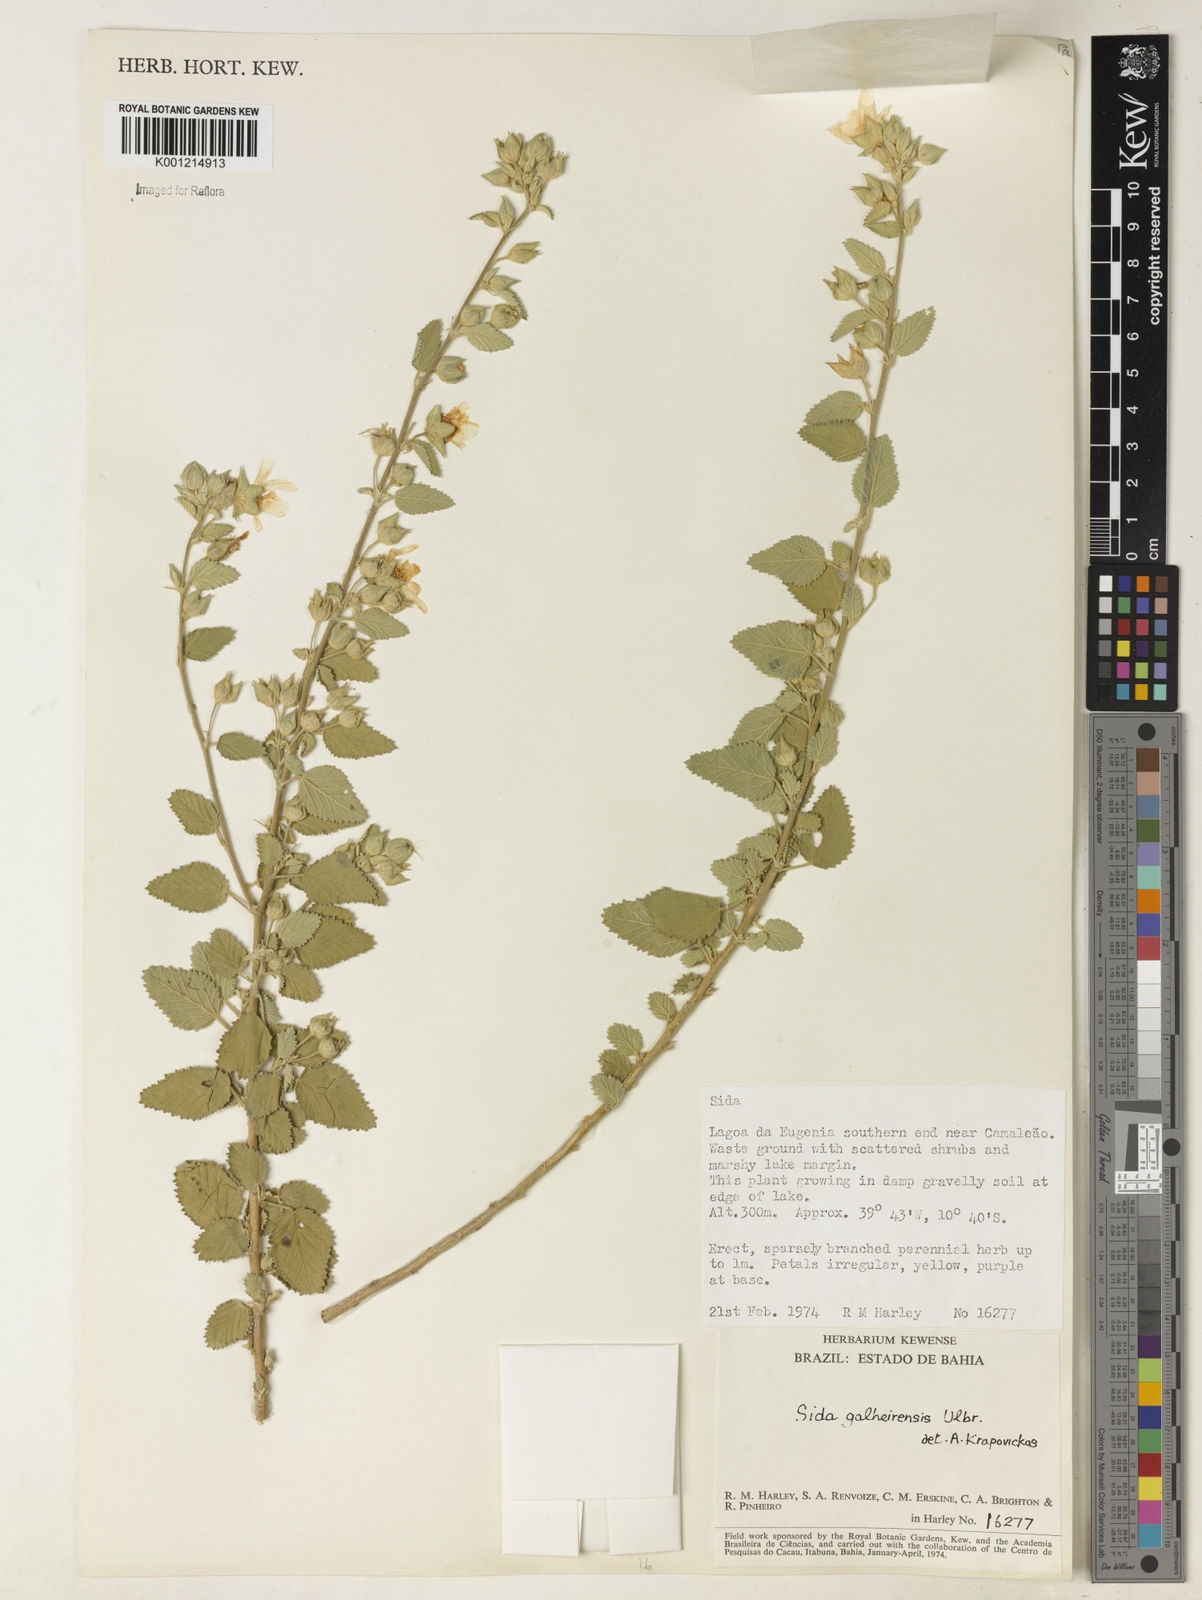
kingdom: Plantae
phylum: Tracheophyta
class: Magnoliopsida
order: Malvales
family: Malvaceae
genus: Sida
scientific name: Sida galheirensis
